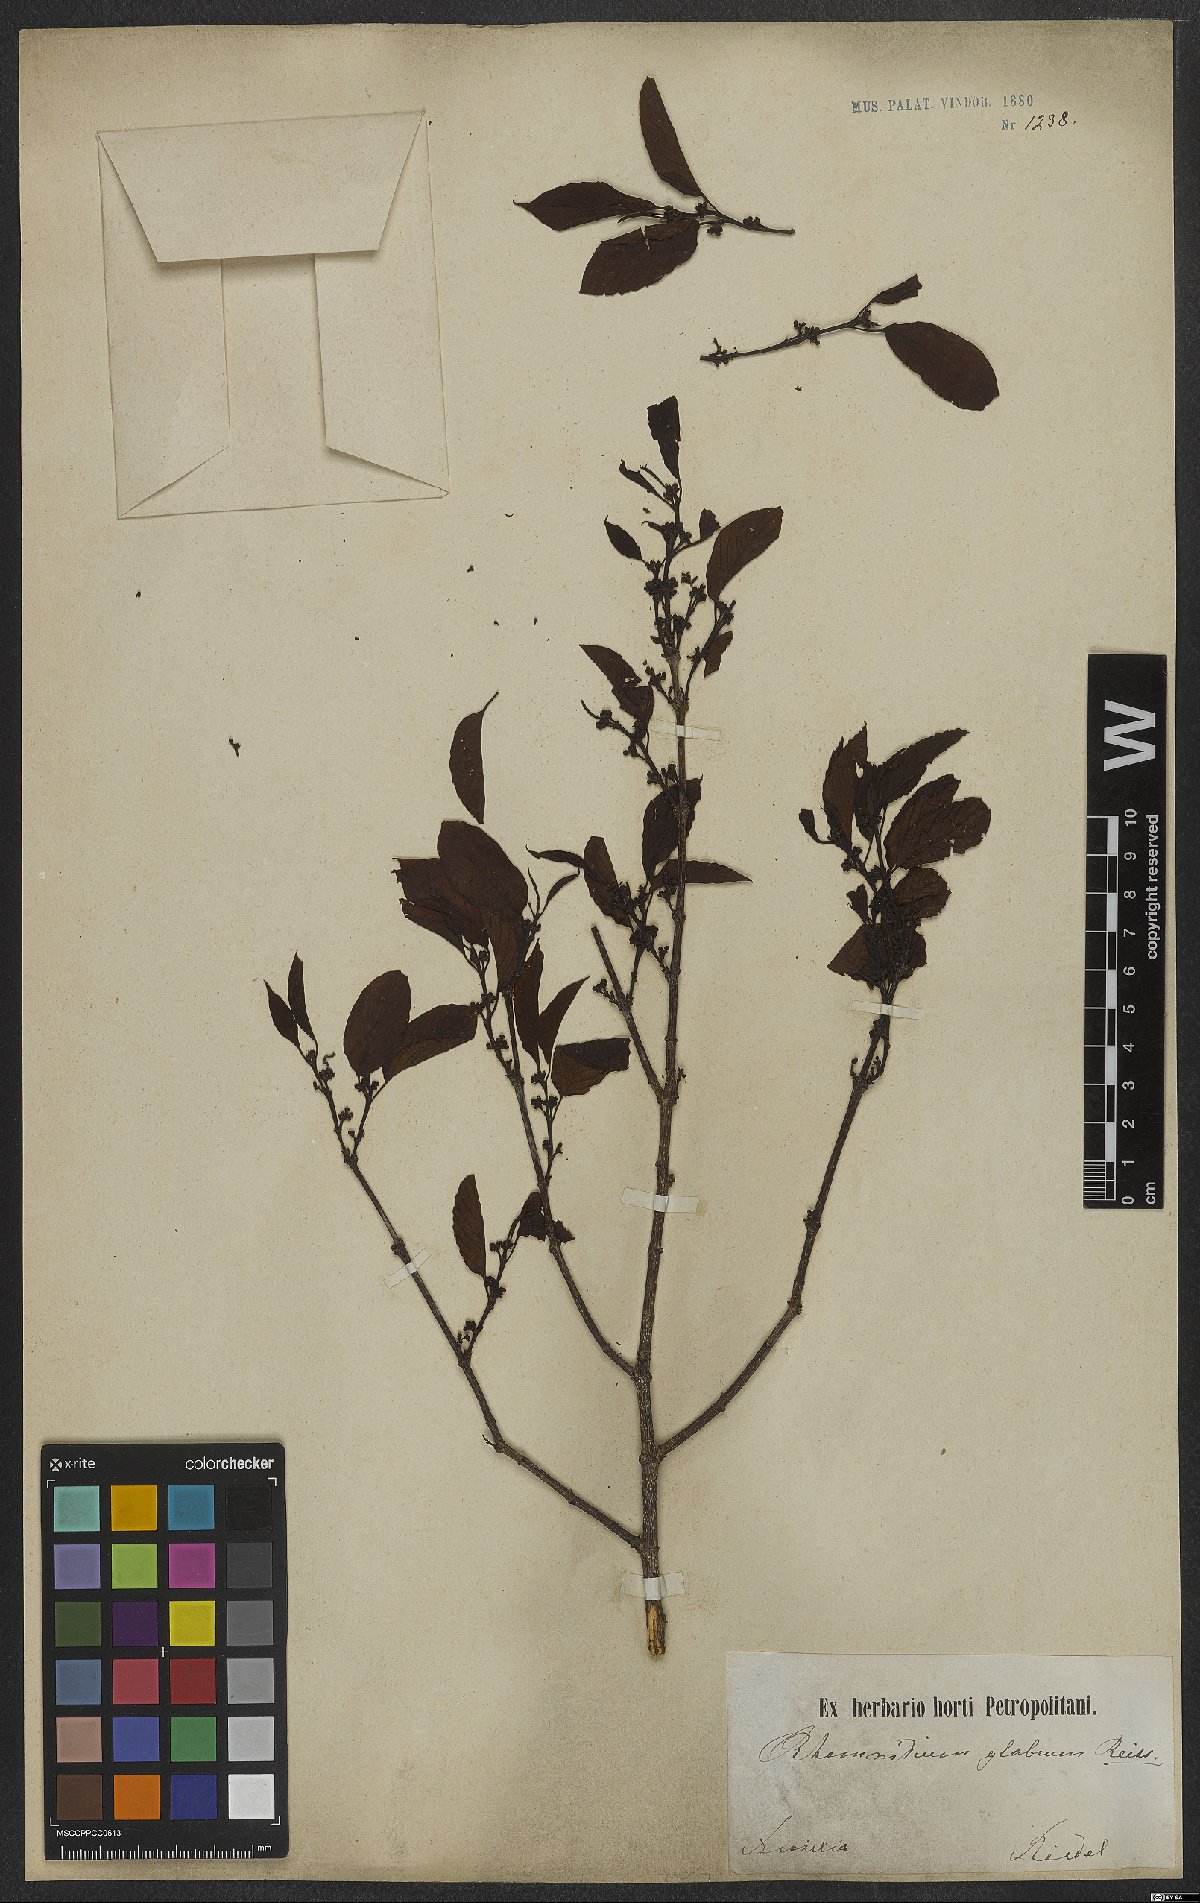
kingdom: Plantae
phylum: Tracheophyta
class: Magnoliopsida
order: Rosales
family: Rhamnaceae
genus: Rhamnidium
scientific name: Rhamnidium glabrum
